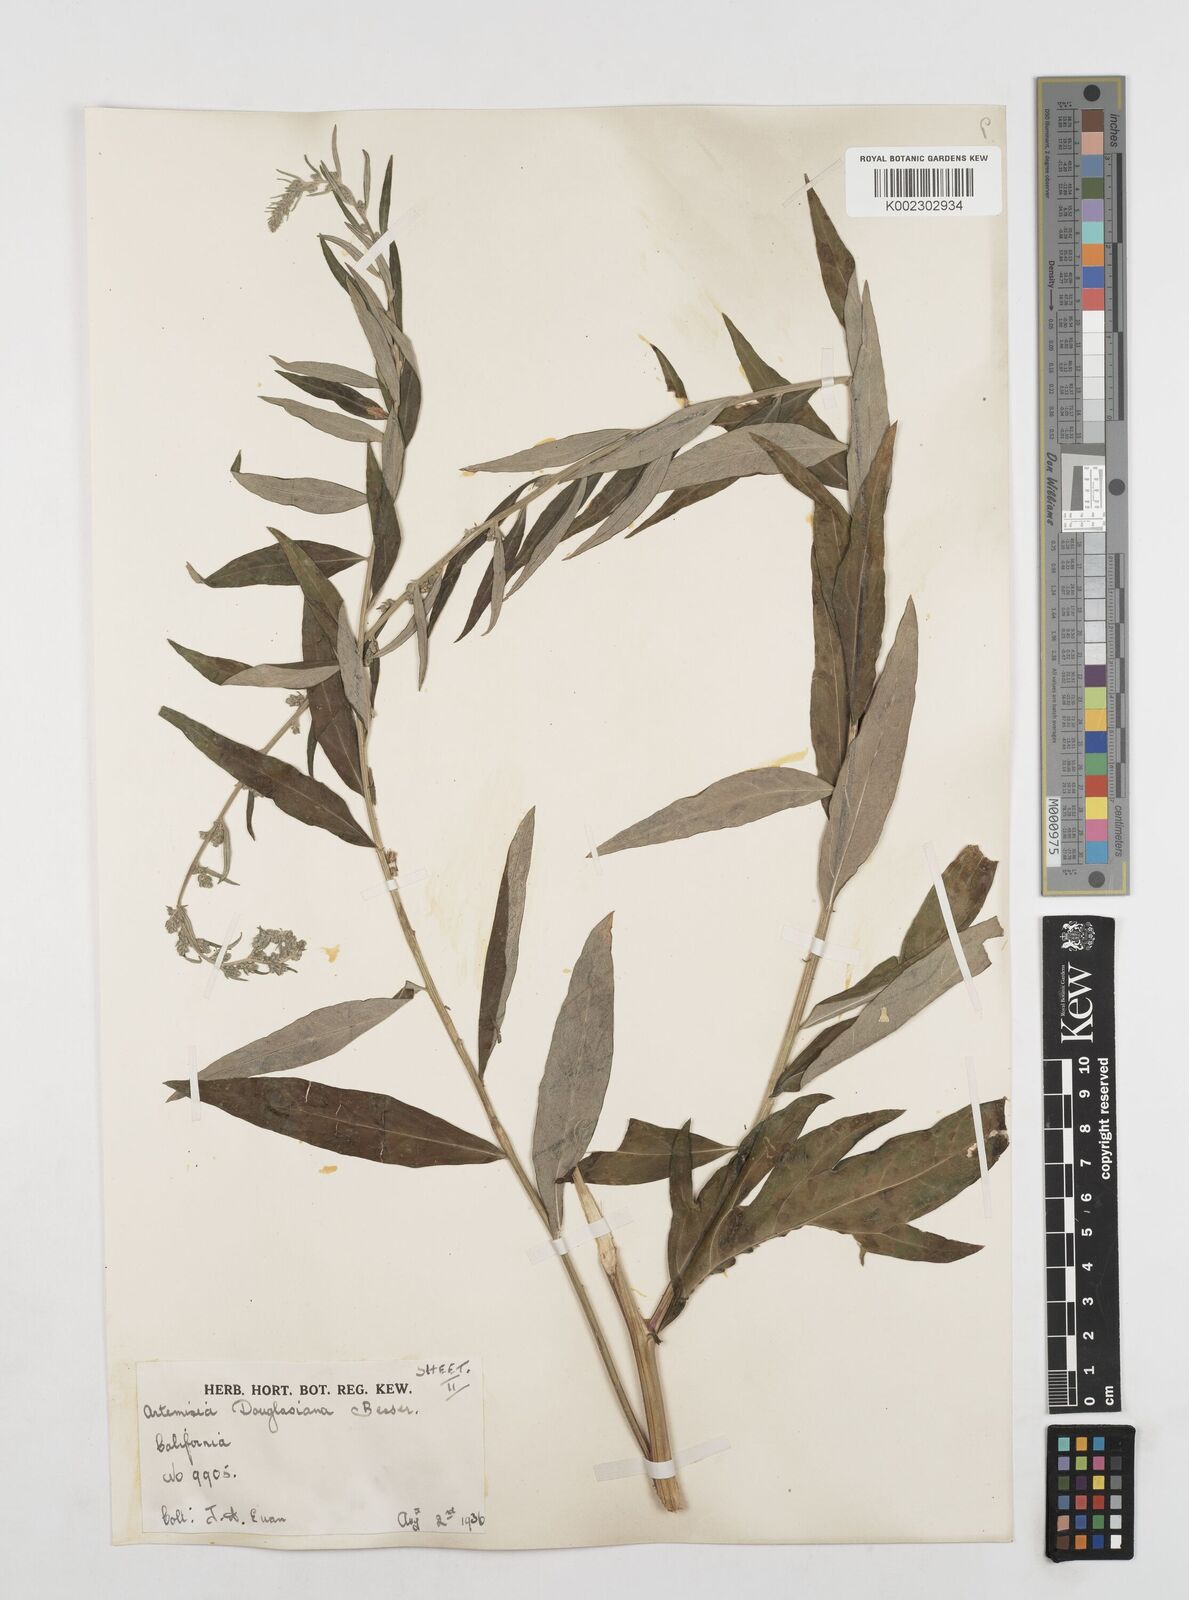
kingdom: Plantae
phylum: Tracheophyta
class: Magnoliopsida
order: Asterales
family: Asteraceae
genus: Artemisia
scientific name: Artemisia douglasiana
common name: Northwest mugwort
